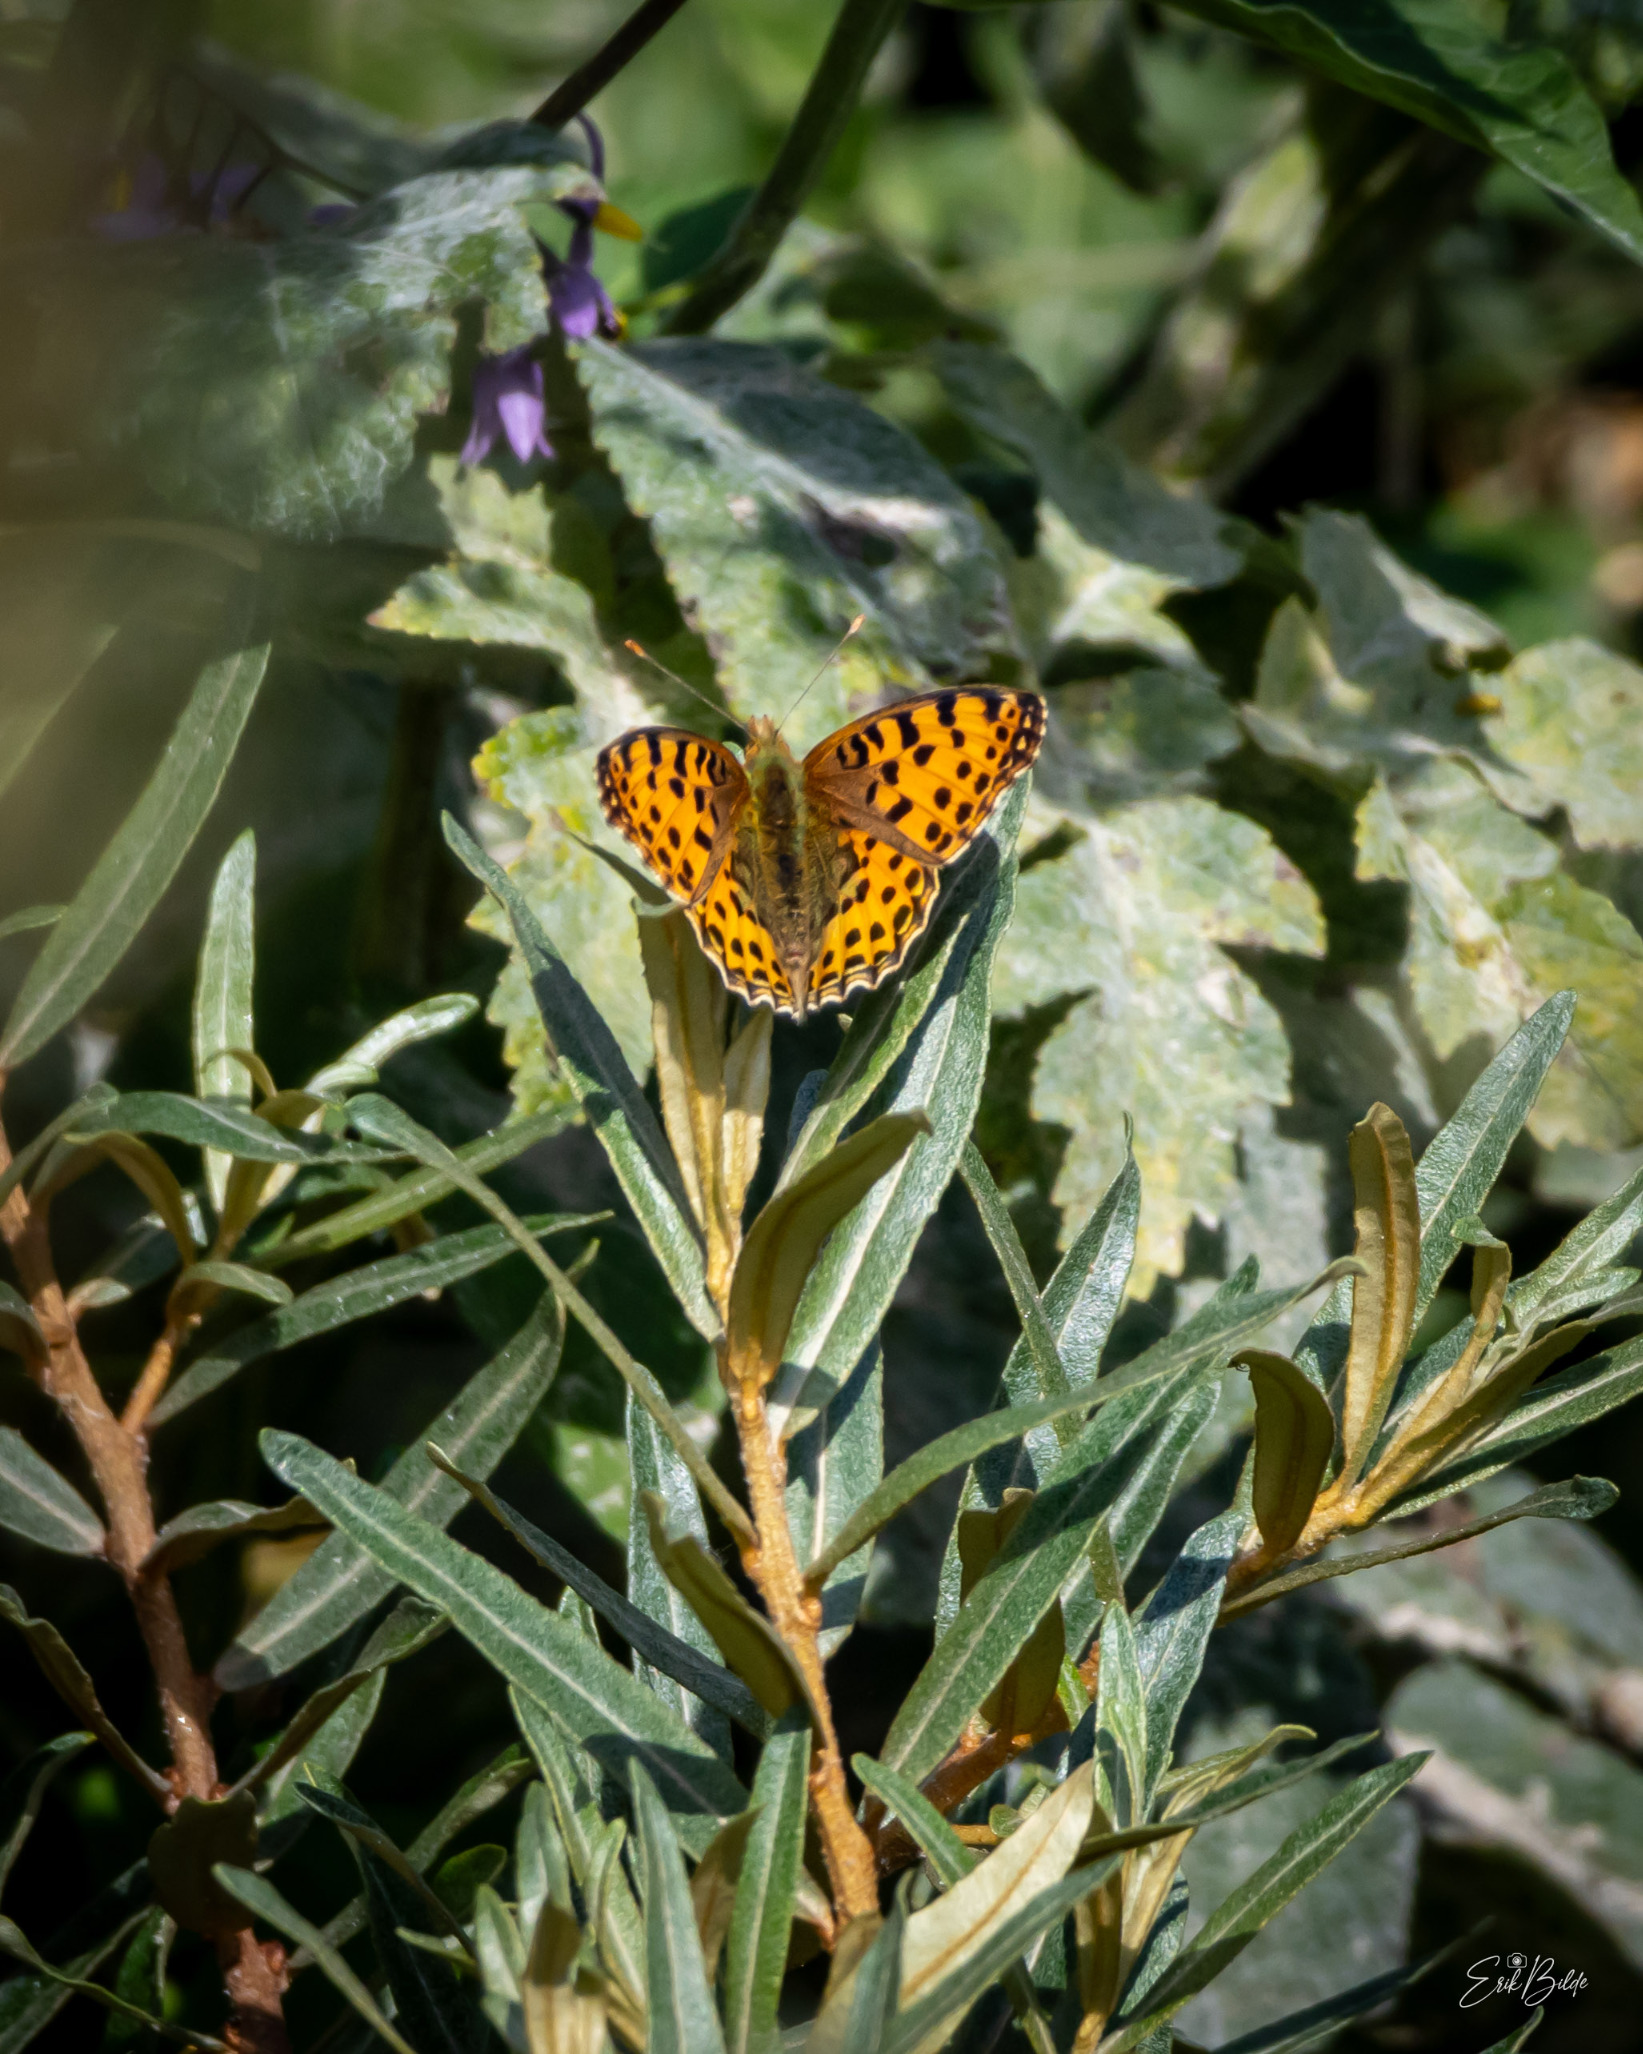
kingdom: Animalia
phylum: Arthropoda
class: Insecta
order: Lepidoptera
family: Nymphalidae
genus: Issoria
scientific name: Issoria lathonia
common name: Storplettet perlemorsommerfugl
